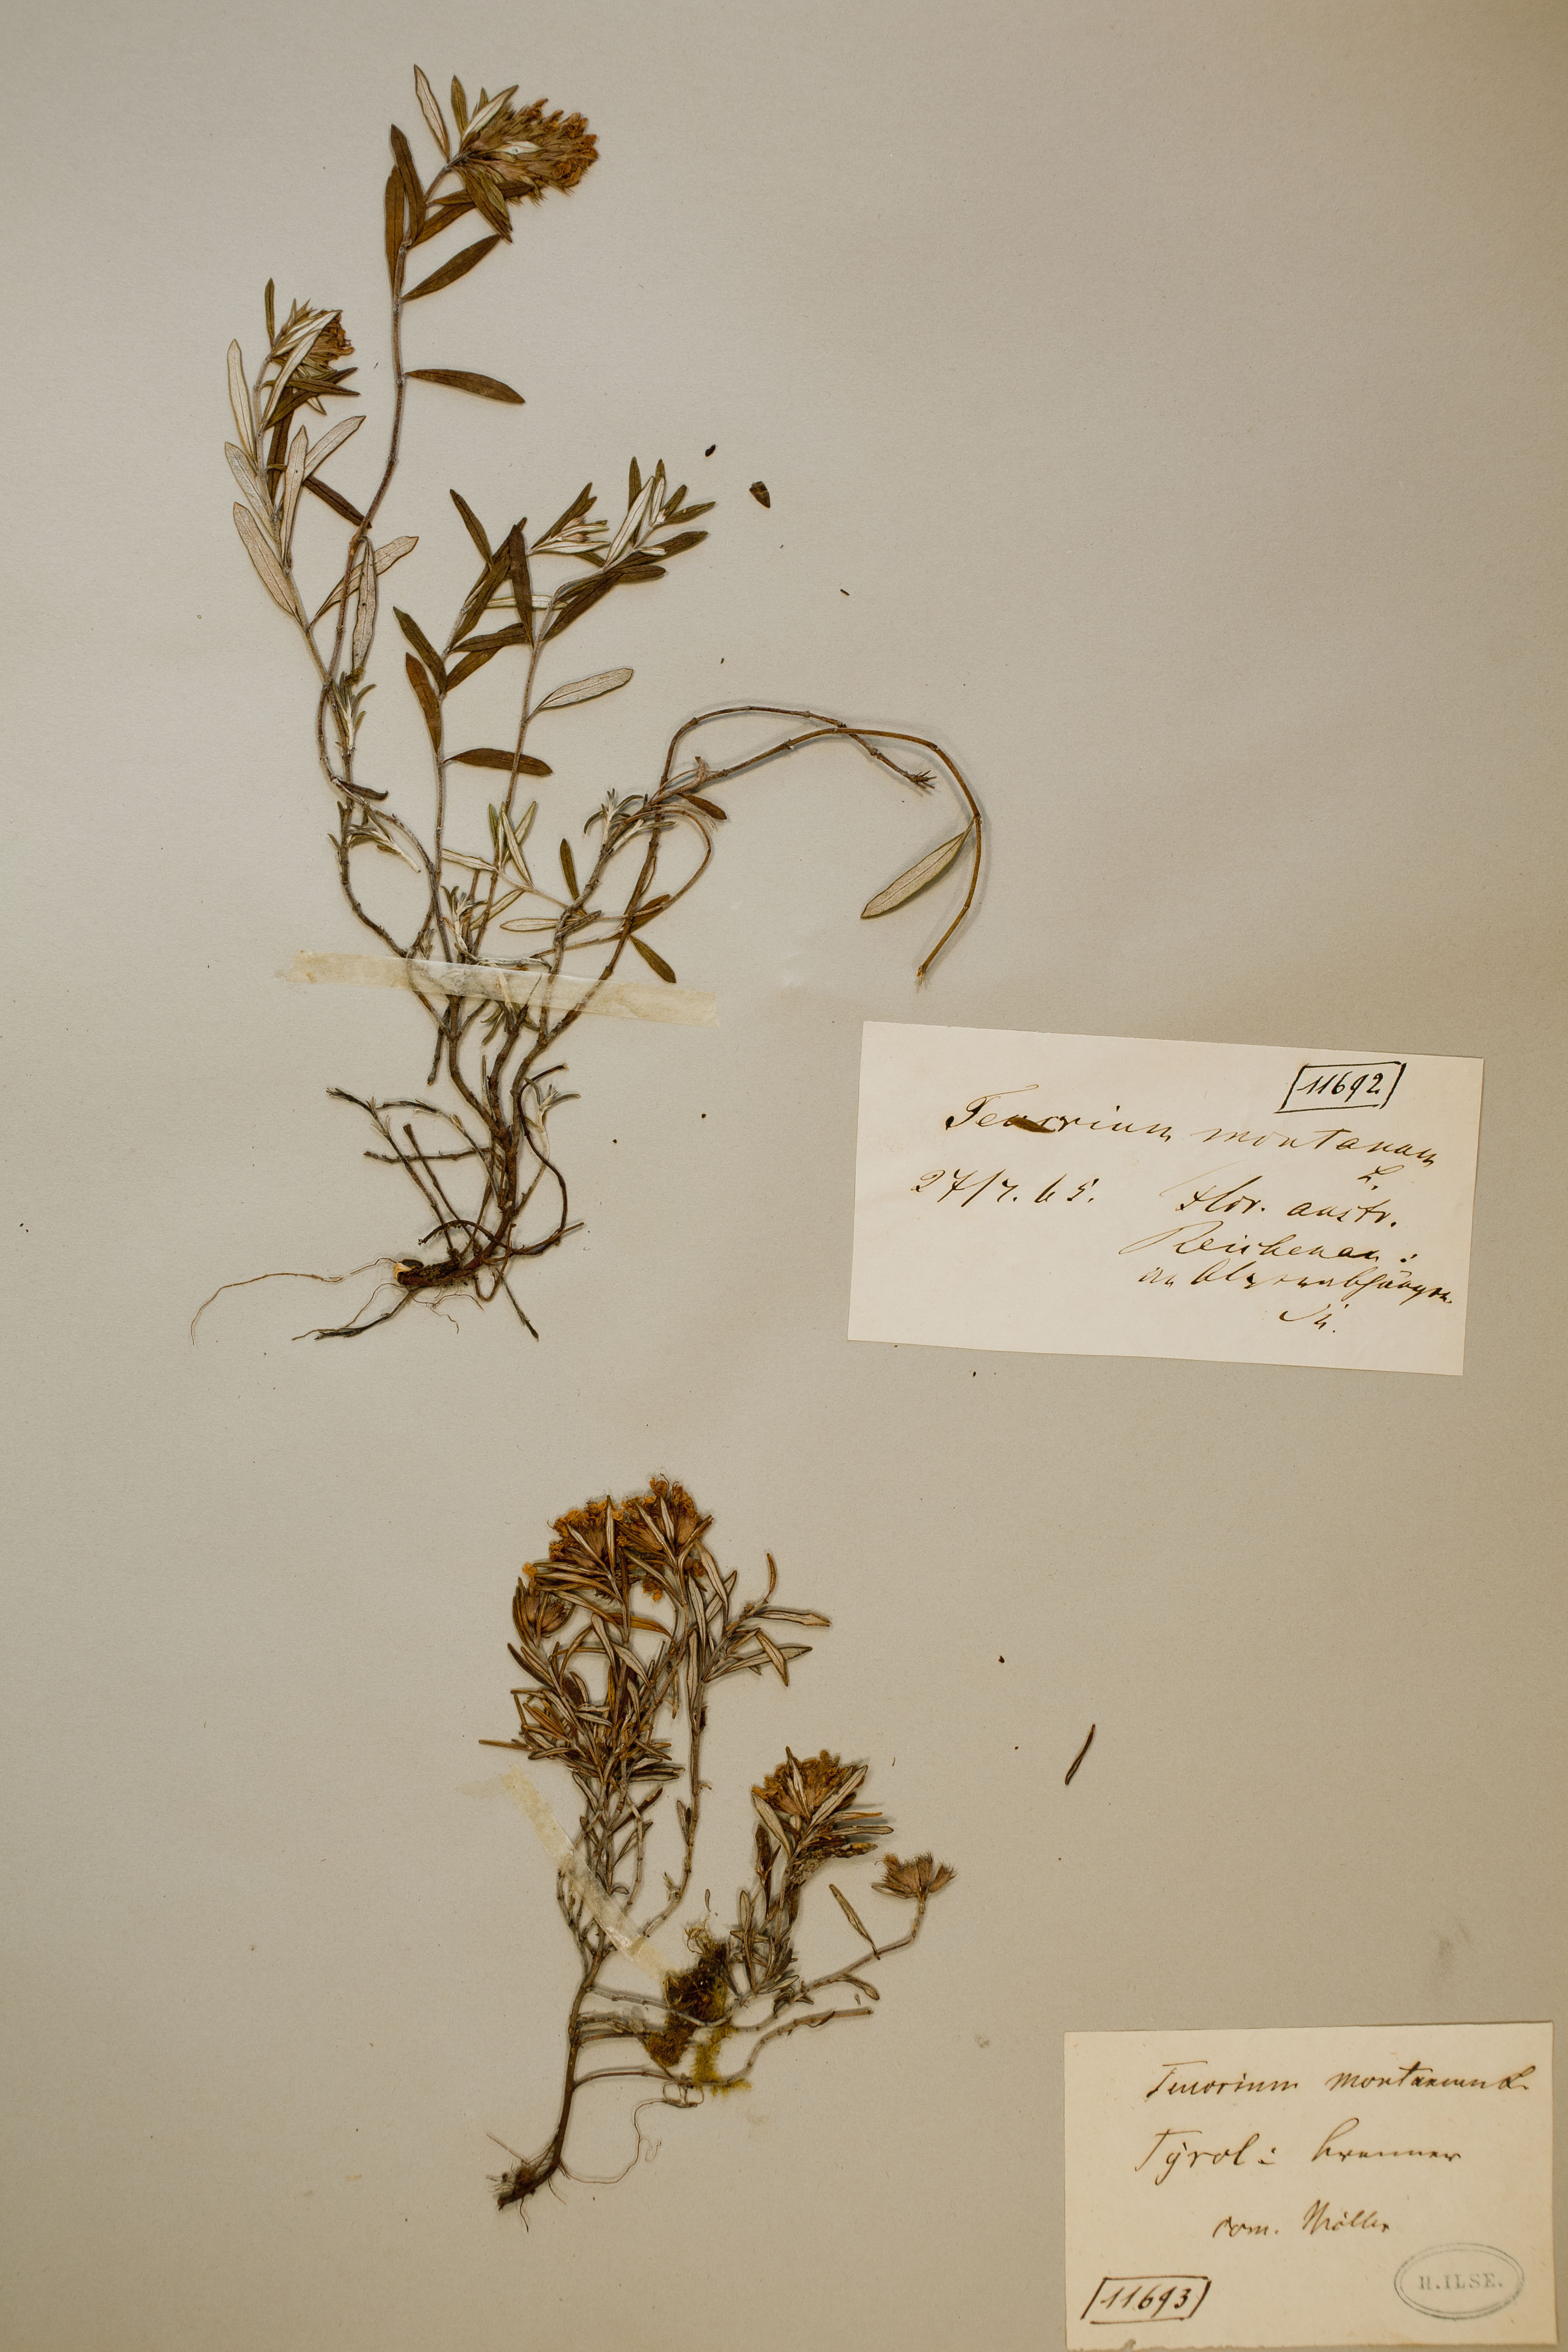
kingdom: Plantae
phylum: Tracheophyta
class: Magnoliopsida
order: Lamiales
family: Lamiaceae
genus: Teucrium
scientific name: Teucrium montanum
